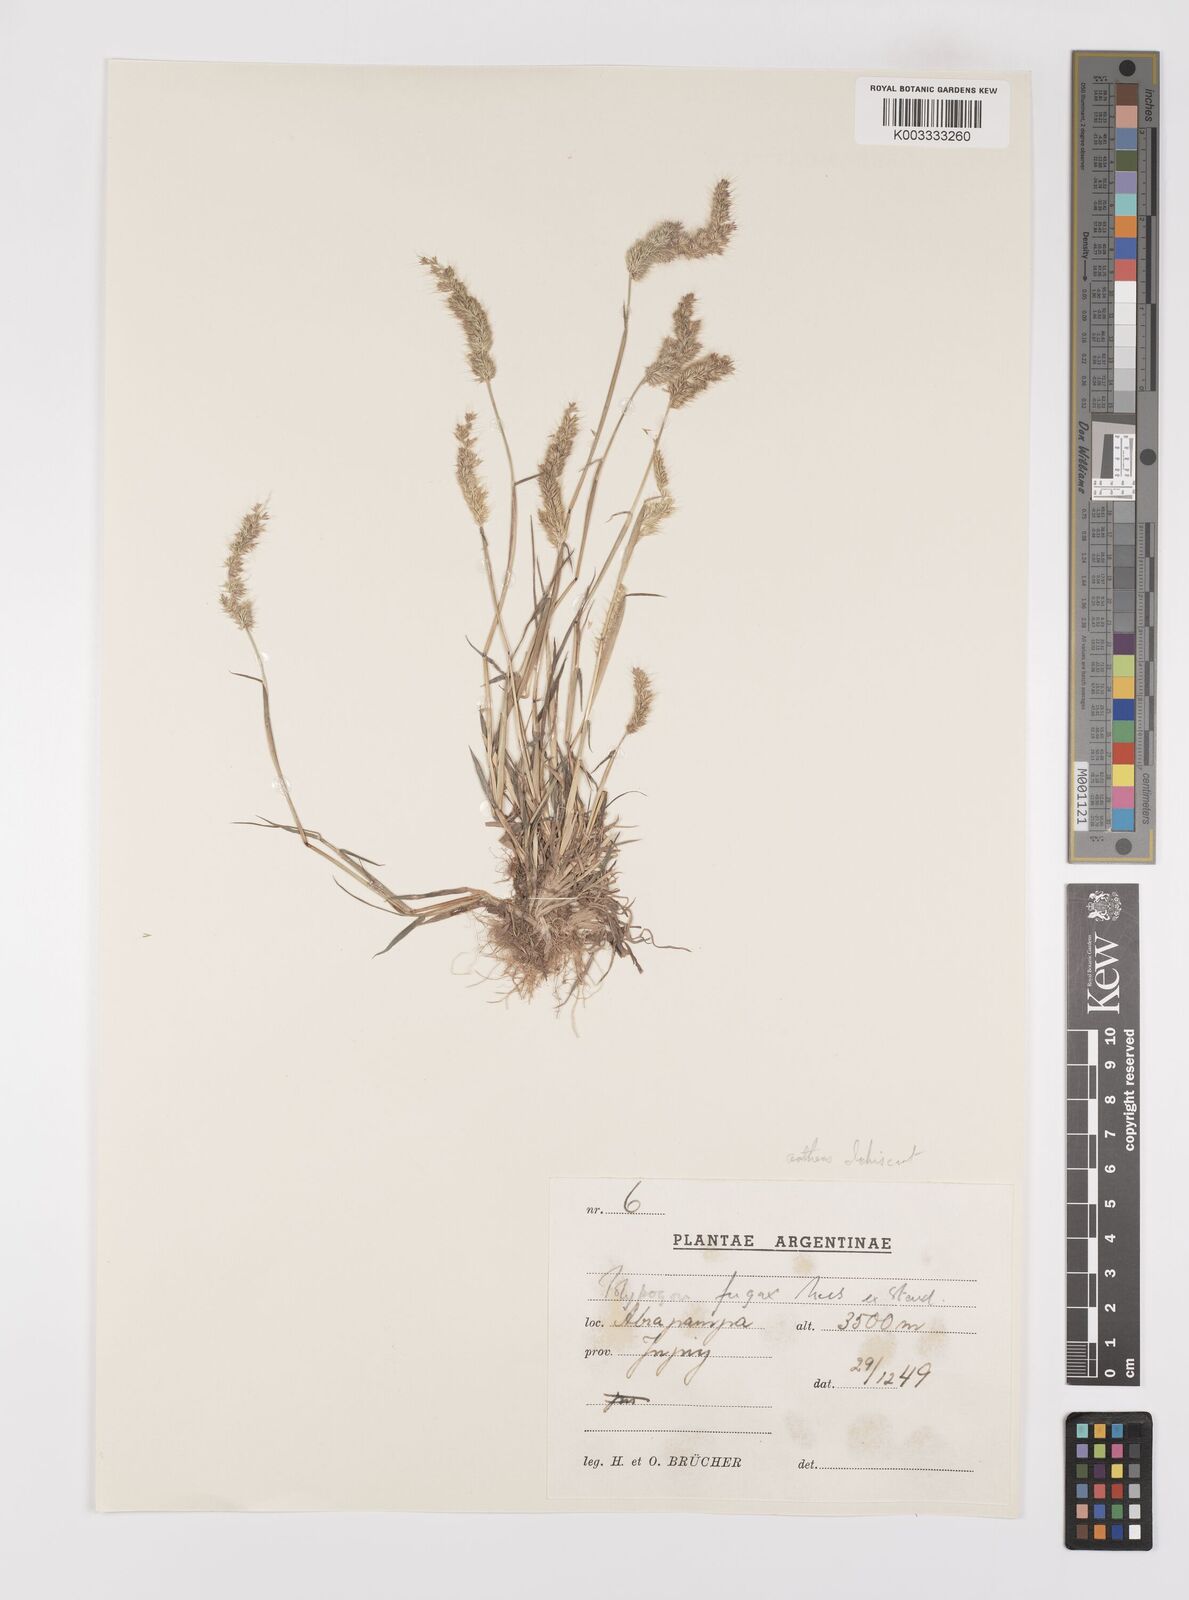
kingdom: Plantae
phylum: Tracheophyta
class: Liliopsida
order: Poales
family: Poaceae
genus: Polypogon
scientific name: Polypogon interruptus
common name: Ditch polypogon
